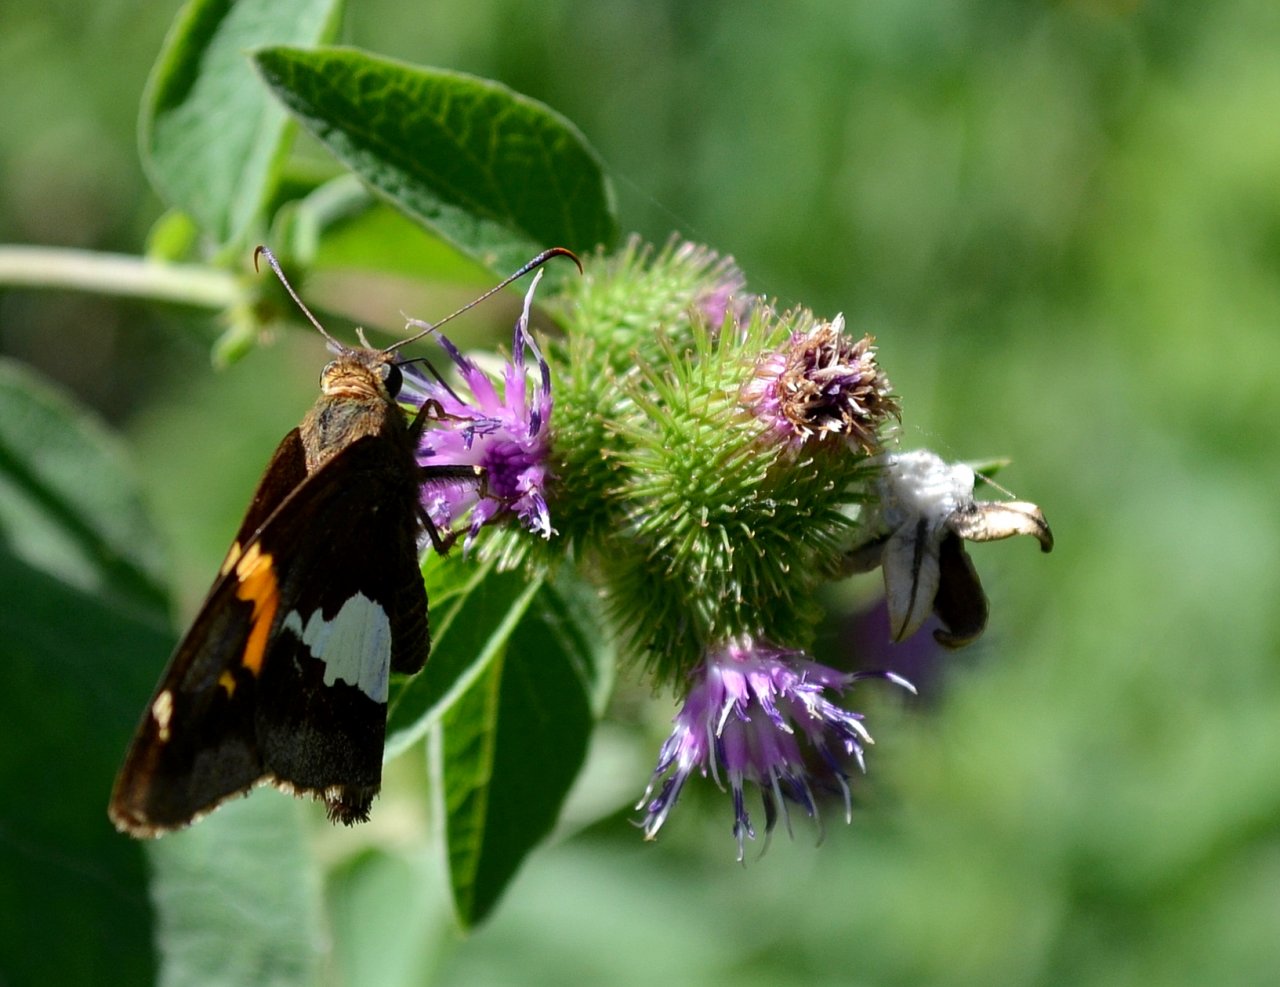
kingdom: Animalia
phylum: Arthropoda
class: Insecta
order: Lepidoptera
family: Hesperiidae
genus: Epargyreus
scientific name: Epargyreus clarus
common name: Silver-spotted Skipper
